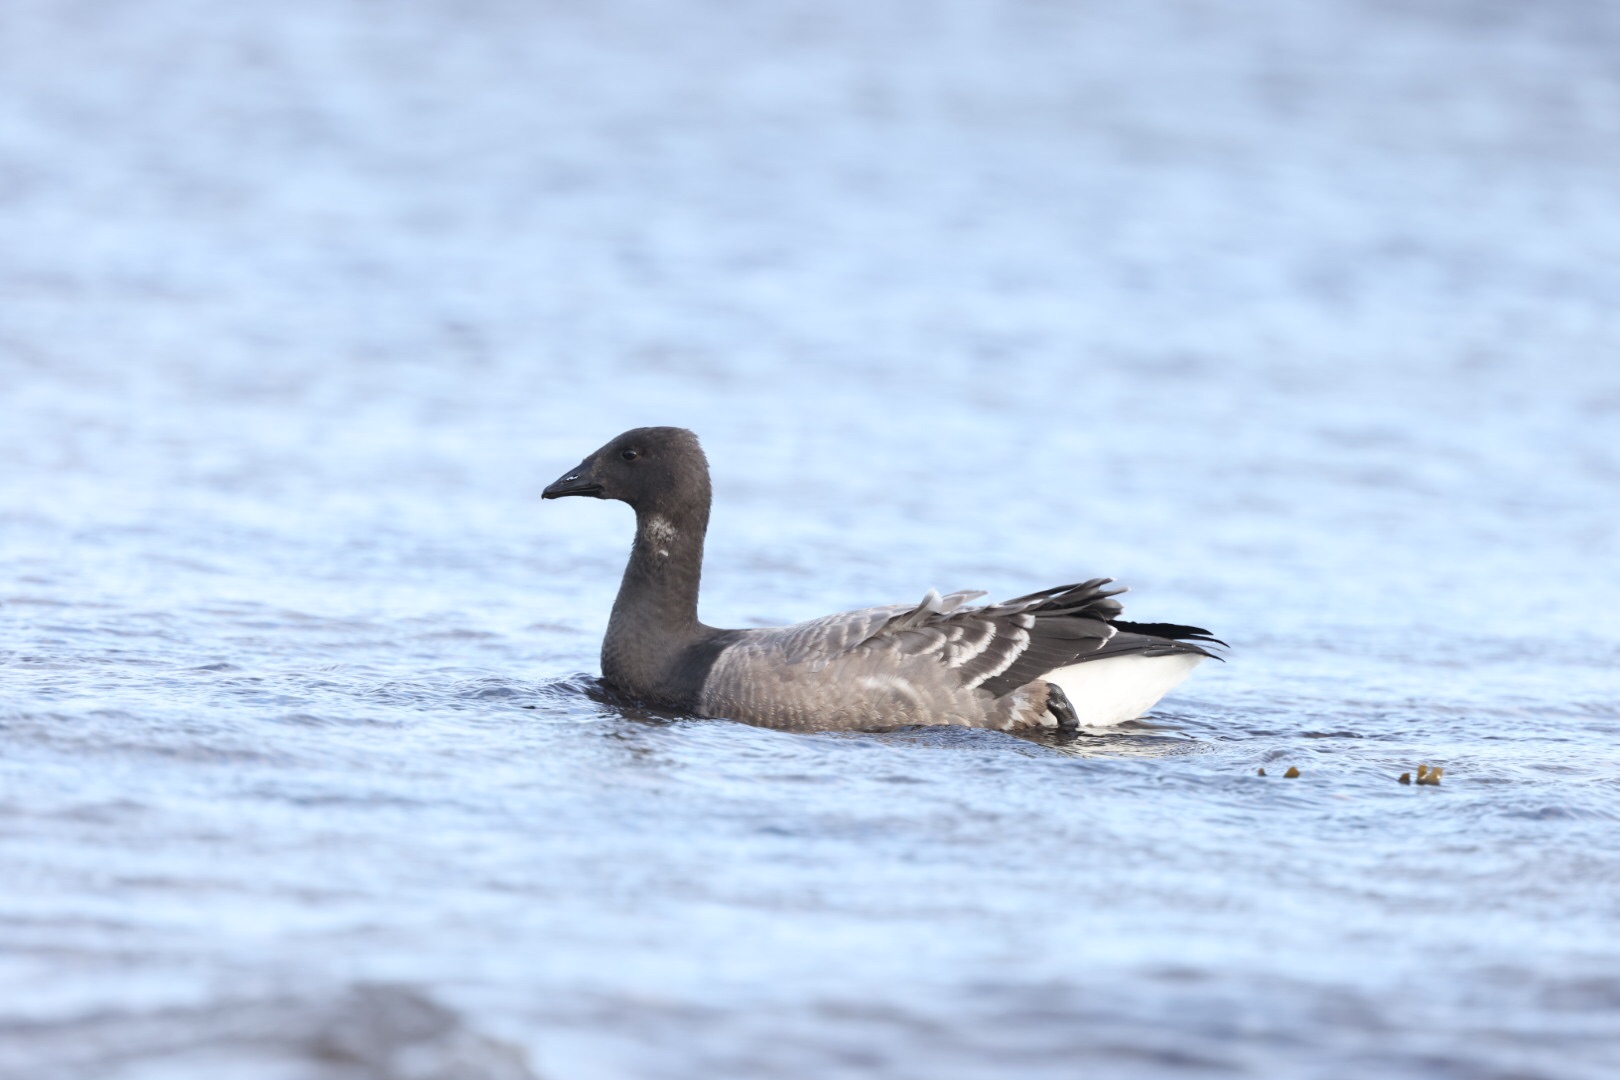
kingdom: Animalia
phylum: Chordata
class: Aves
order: Anseriformes
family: Anatidae
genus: Branta
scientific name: Branta bernicla
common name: Knortegås
